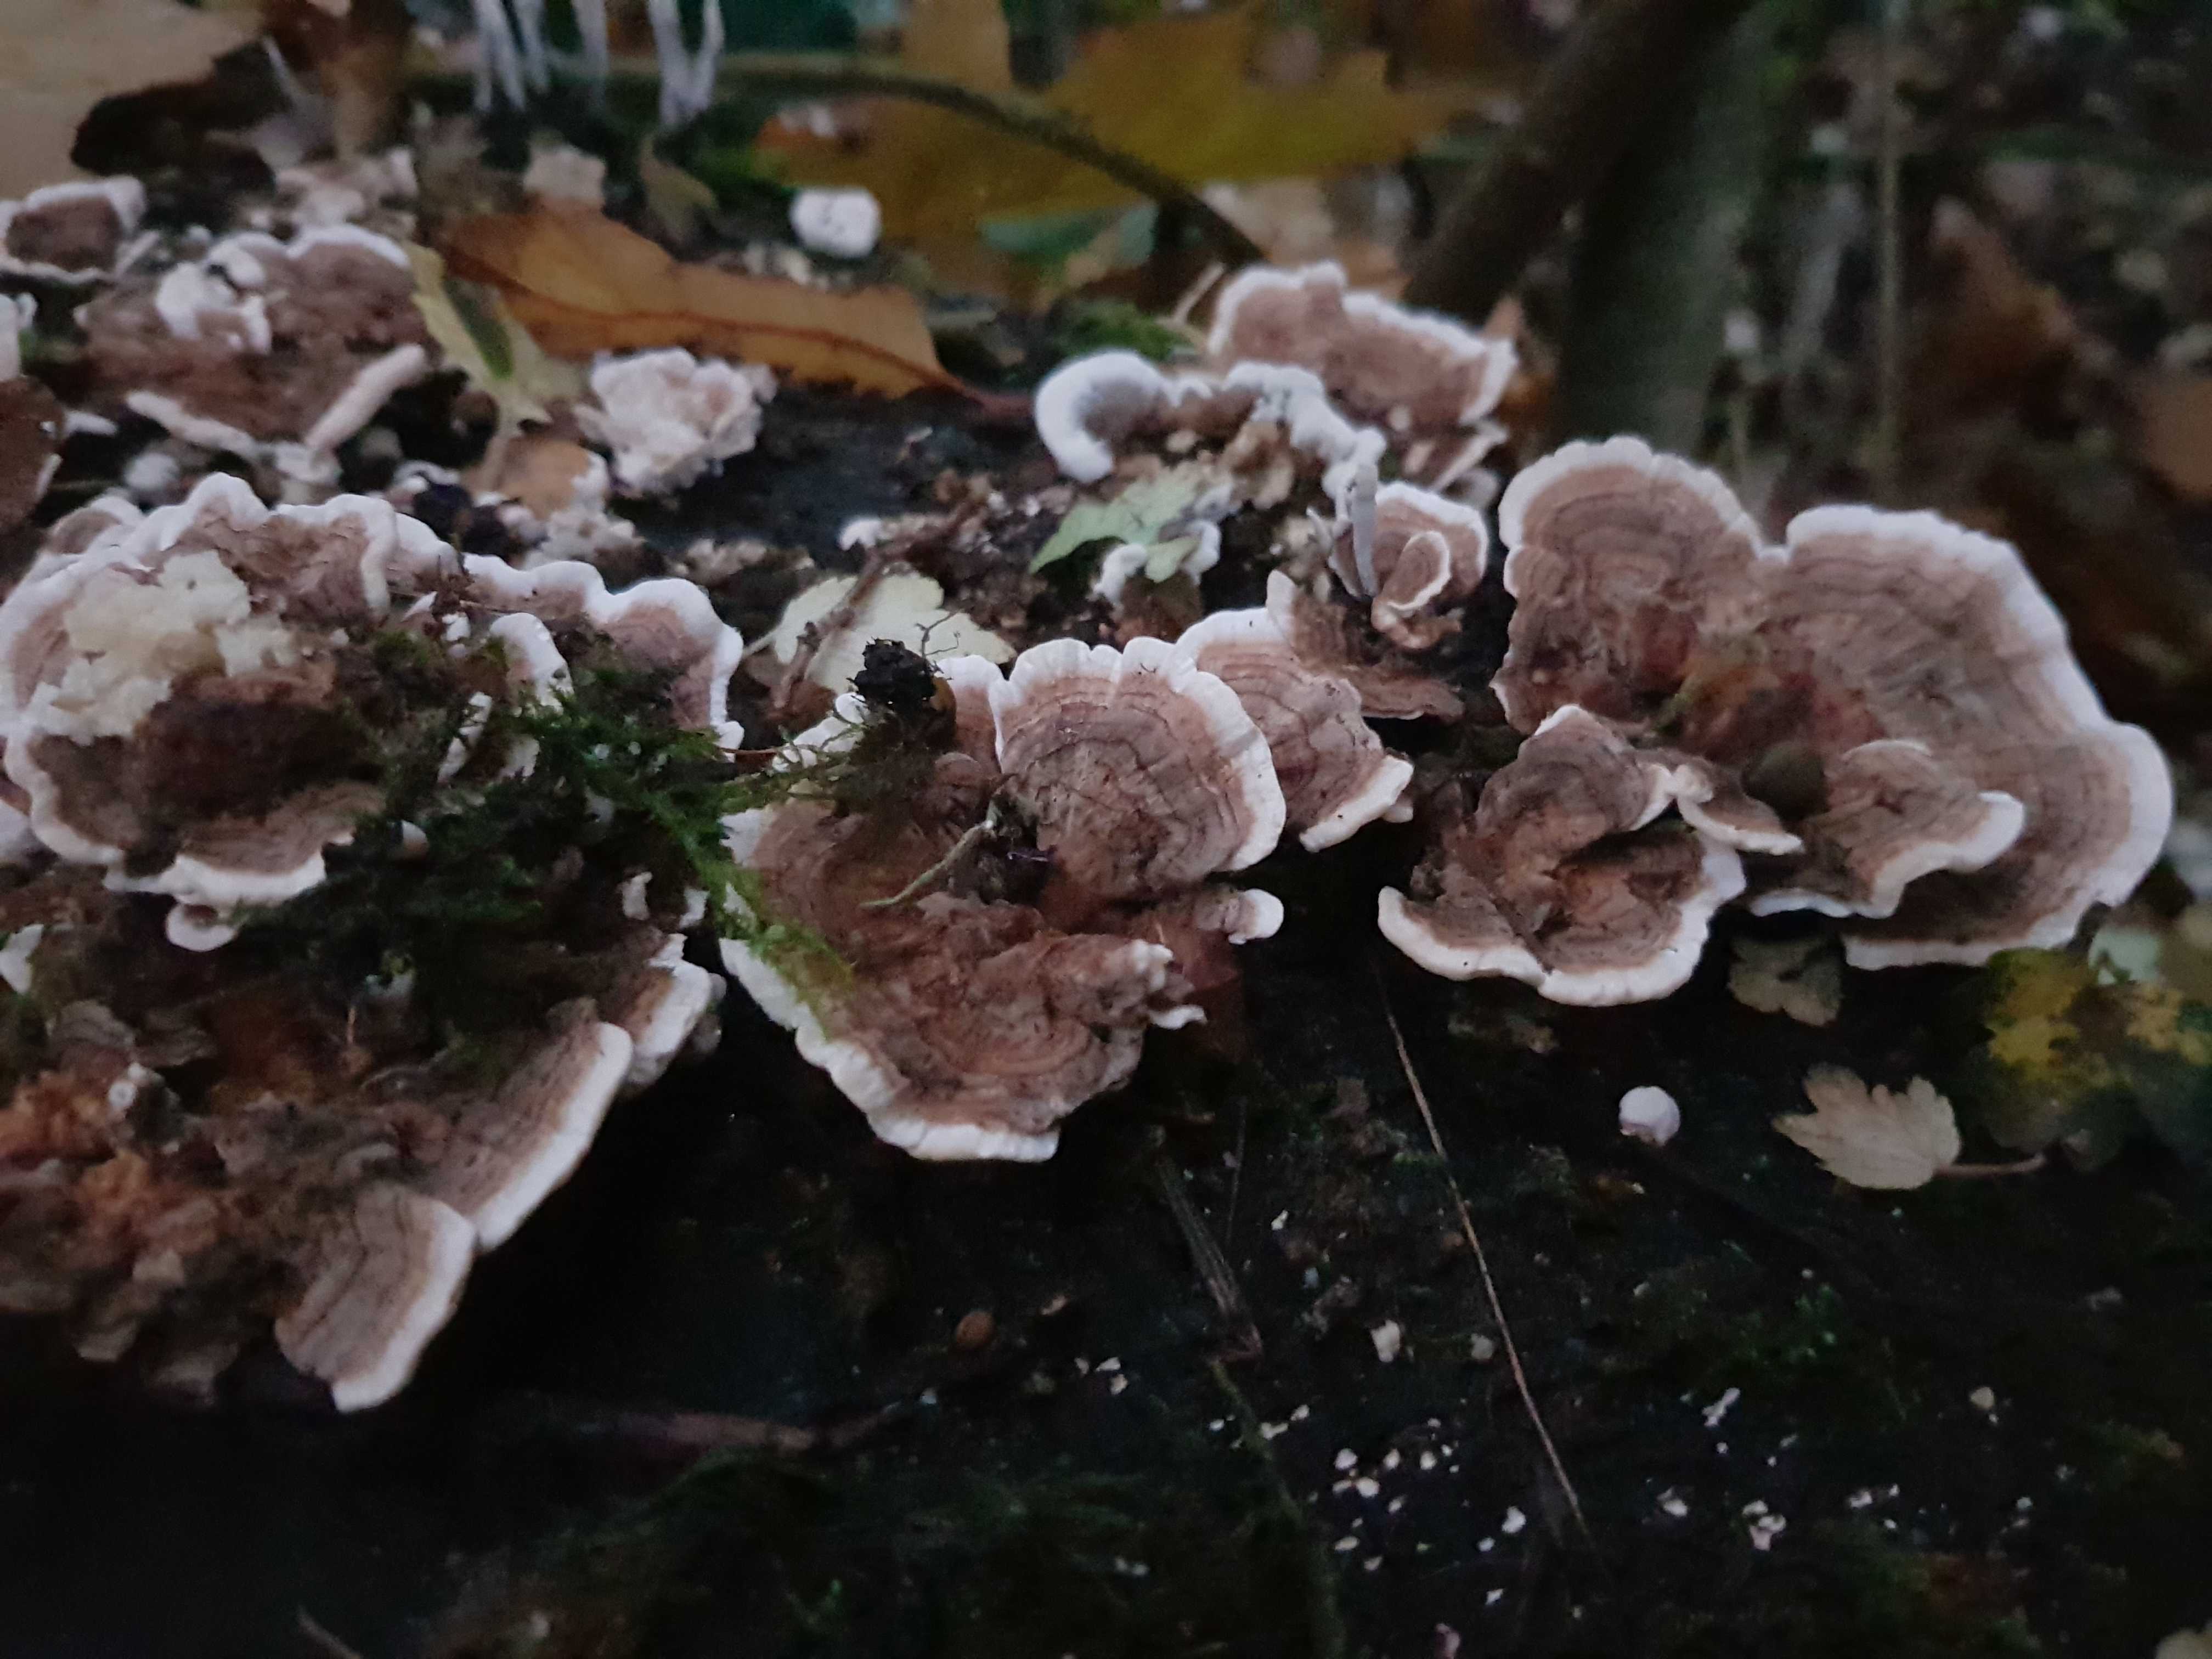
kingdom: Fungi
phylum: Basidiomycota
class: Agaricomycetes
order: Polyporales
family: Polyporaceae
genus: Trametes
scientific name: Trametes versicolor
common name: broget læderporesvamp
